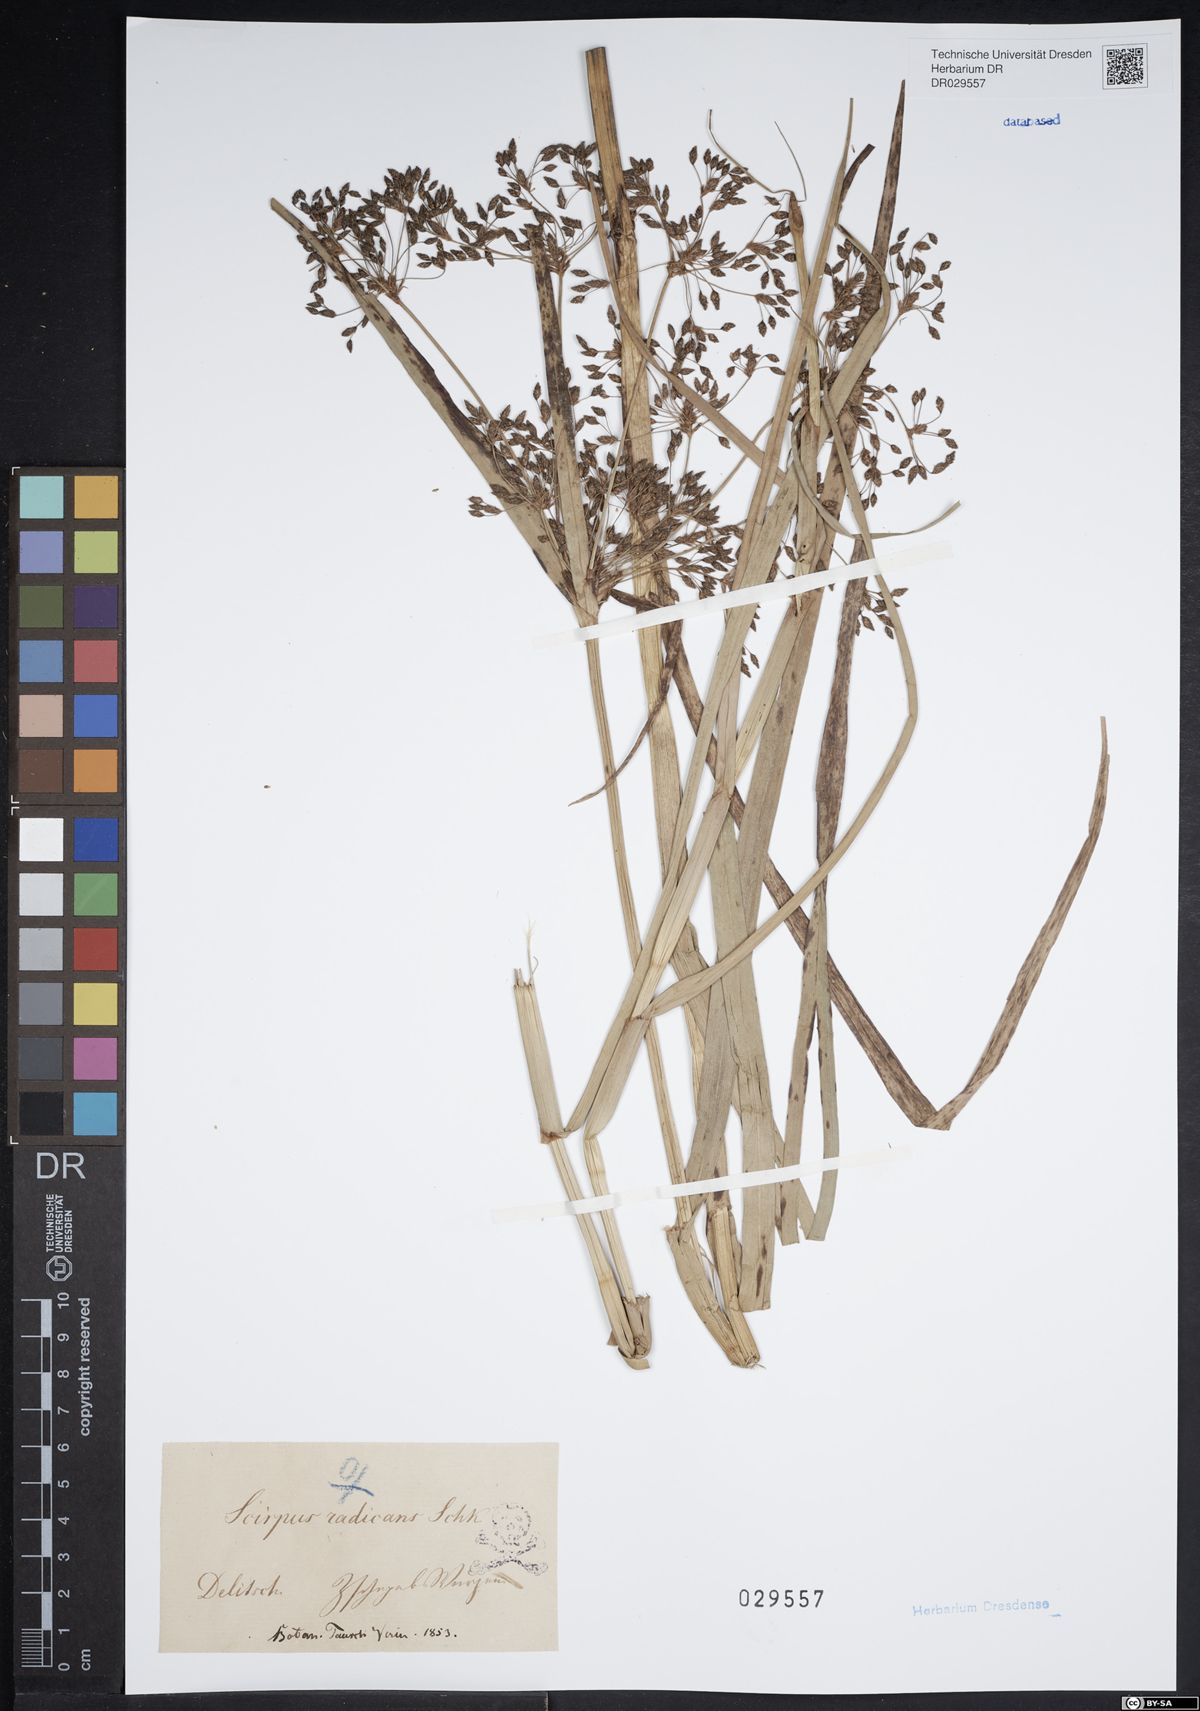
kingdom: Plantae
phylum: Tracheophyta
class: Liliopsida
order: Poales
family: Cyperaceae
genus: Scirpus
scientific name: Scirpus radicans
